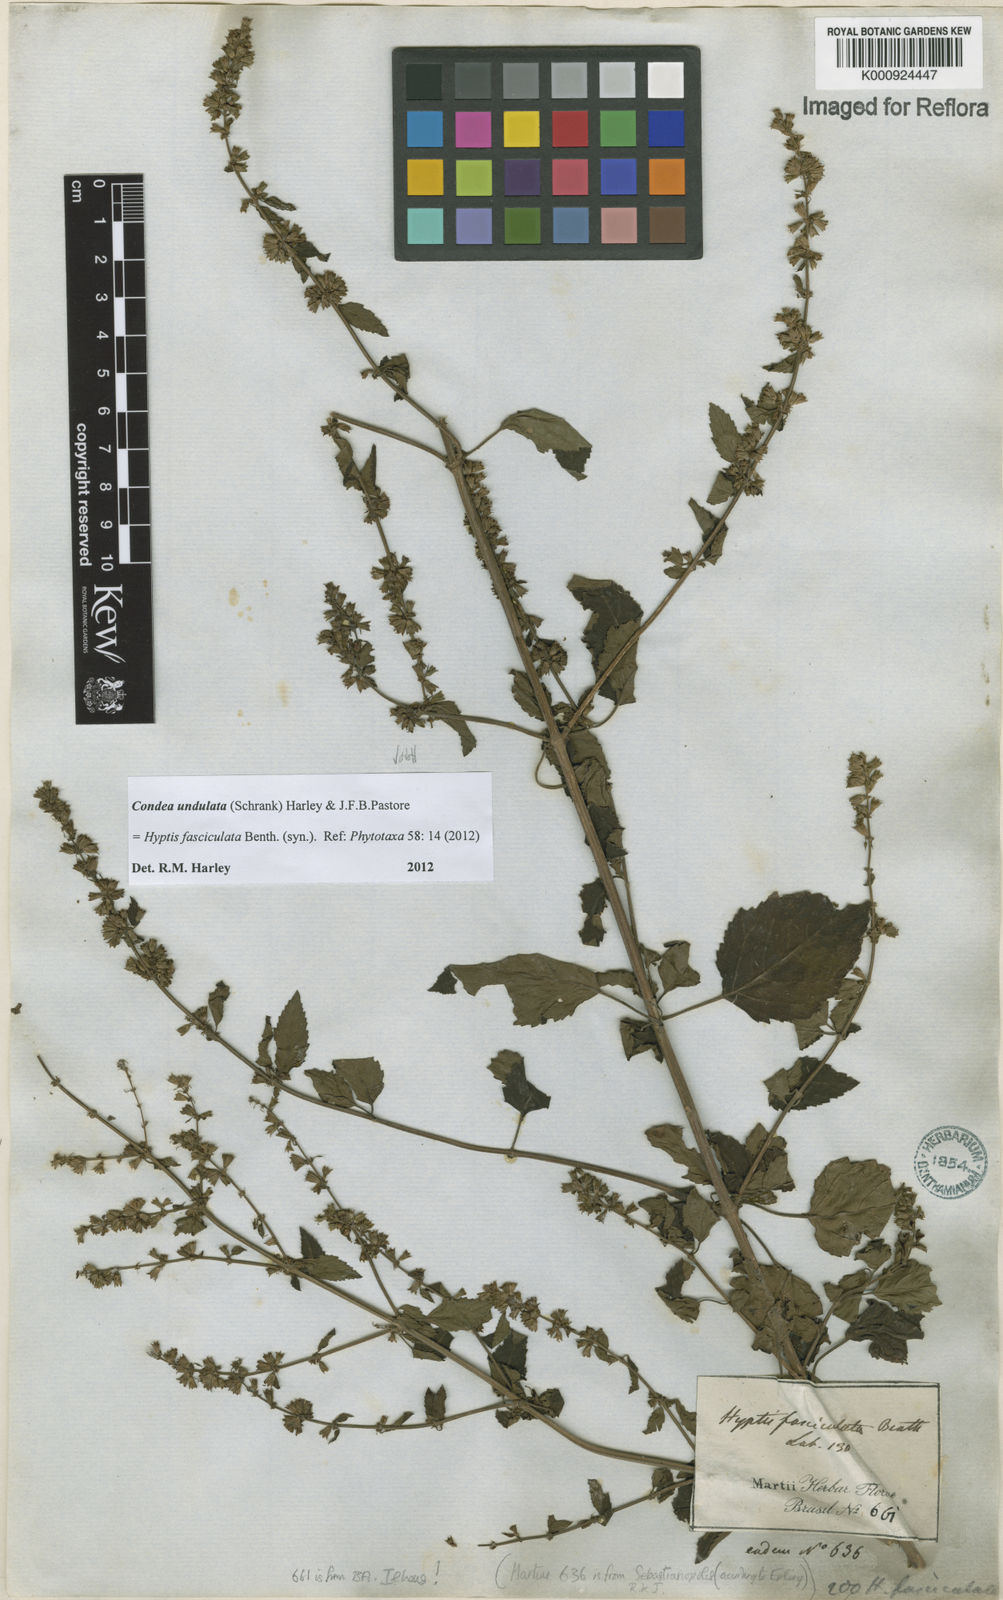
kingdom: Plantae
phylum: Tracheophyta
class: Magnoliopsida
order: Lamiales
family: Lamiaceae
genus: Condea
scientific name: Condea undulata
